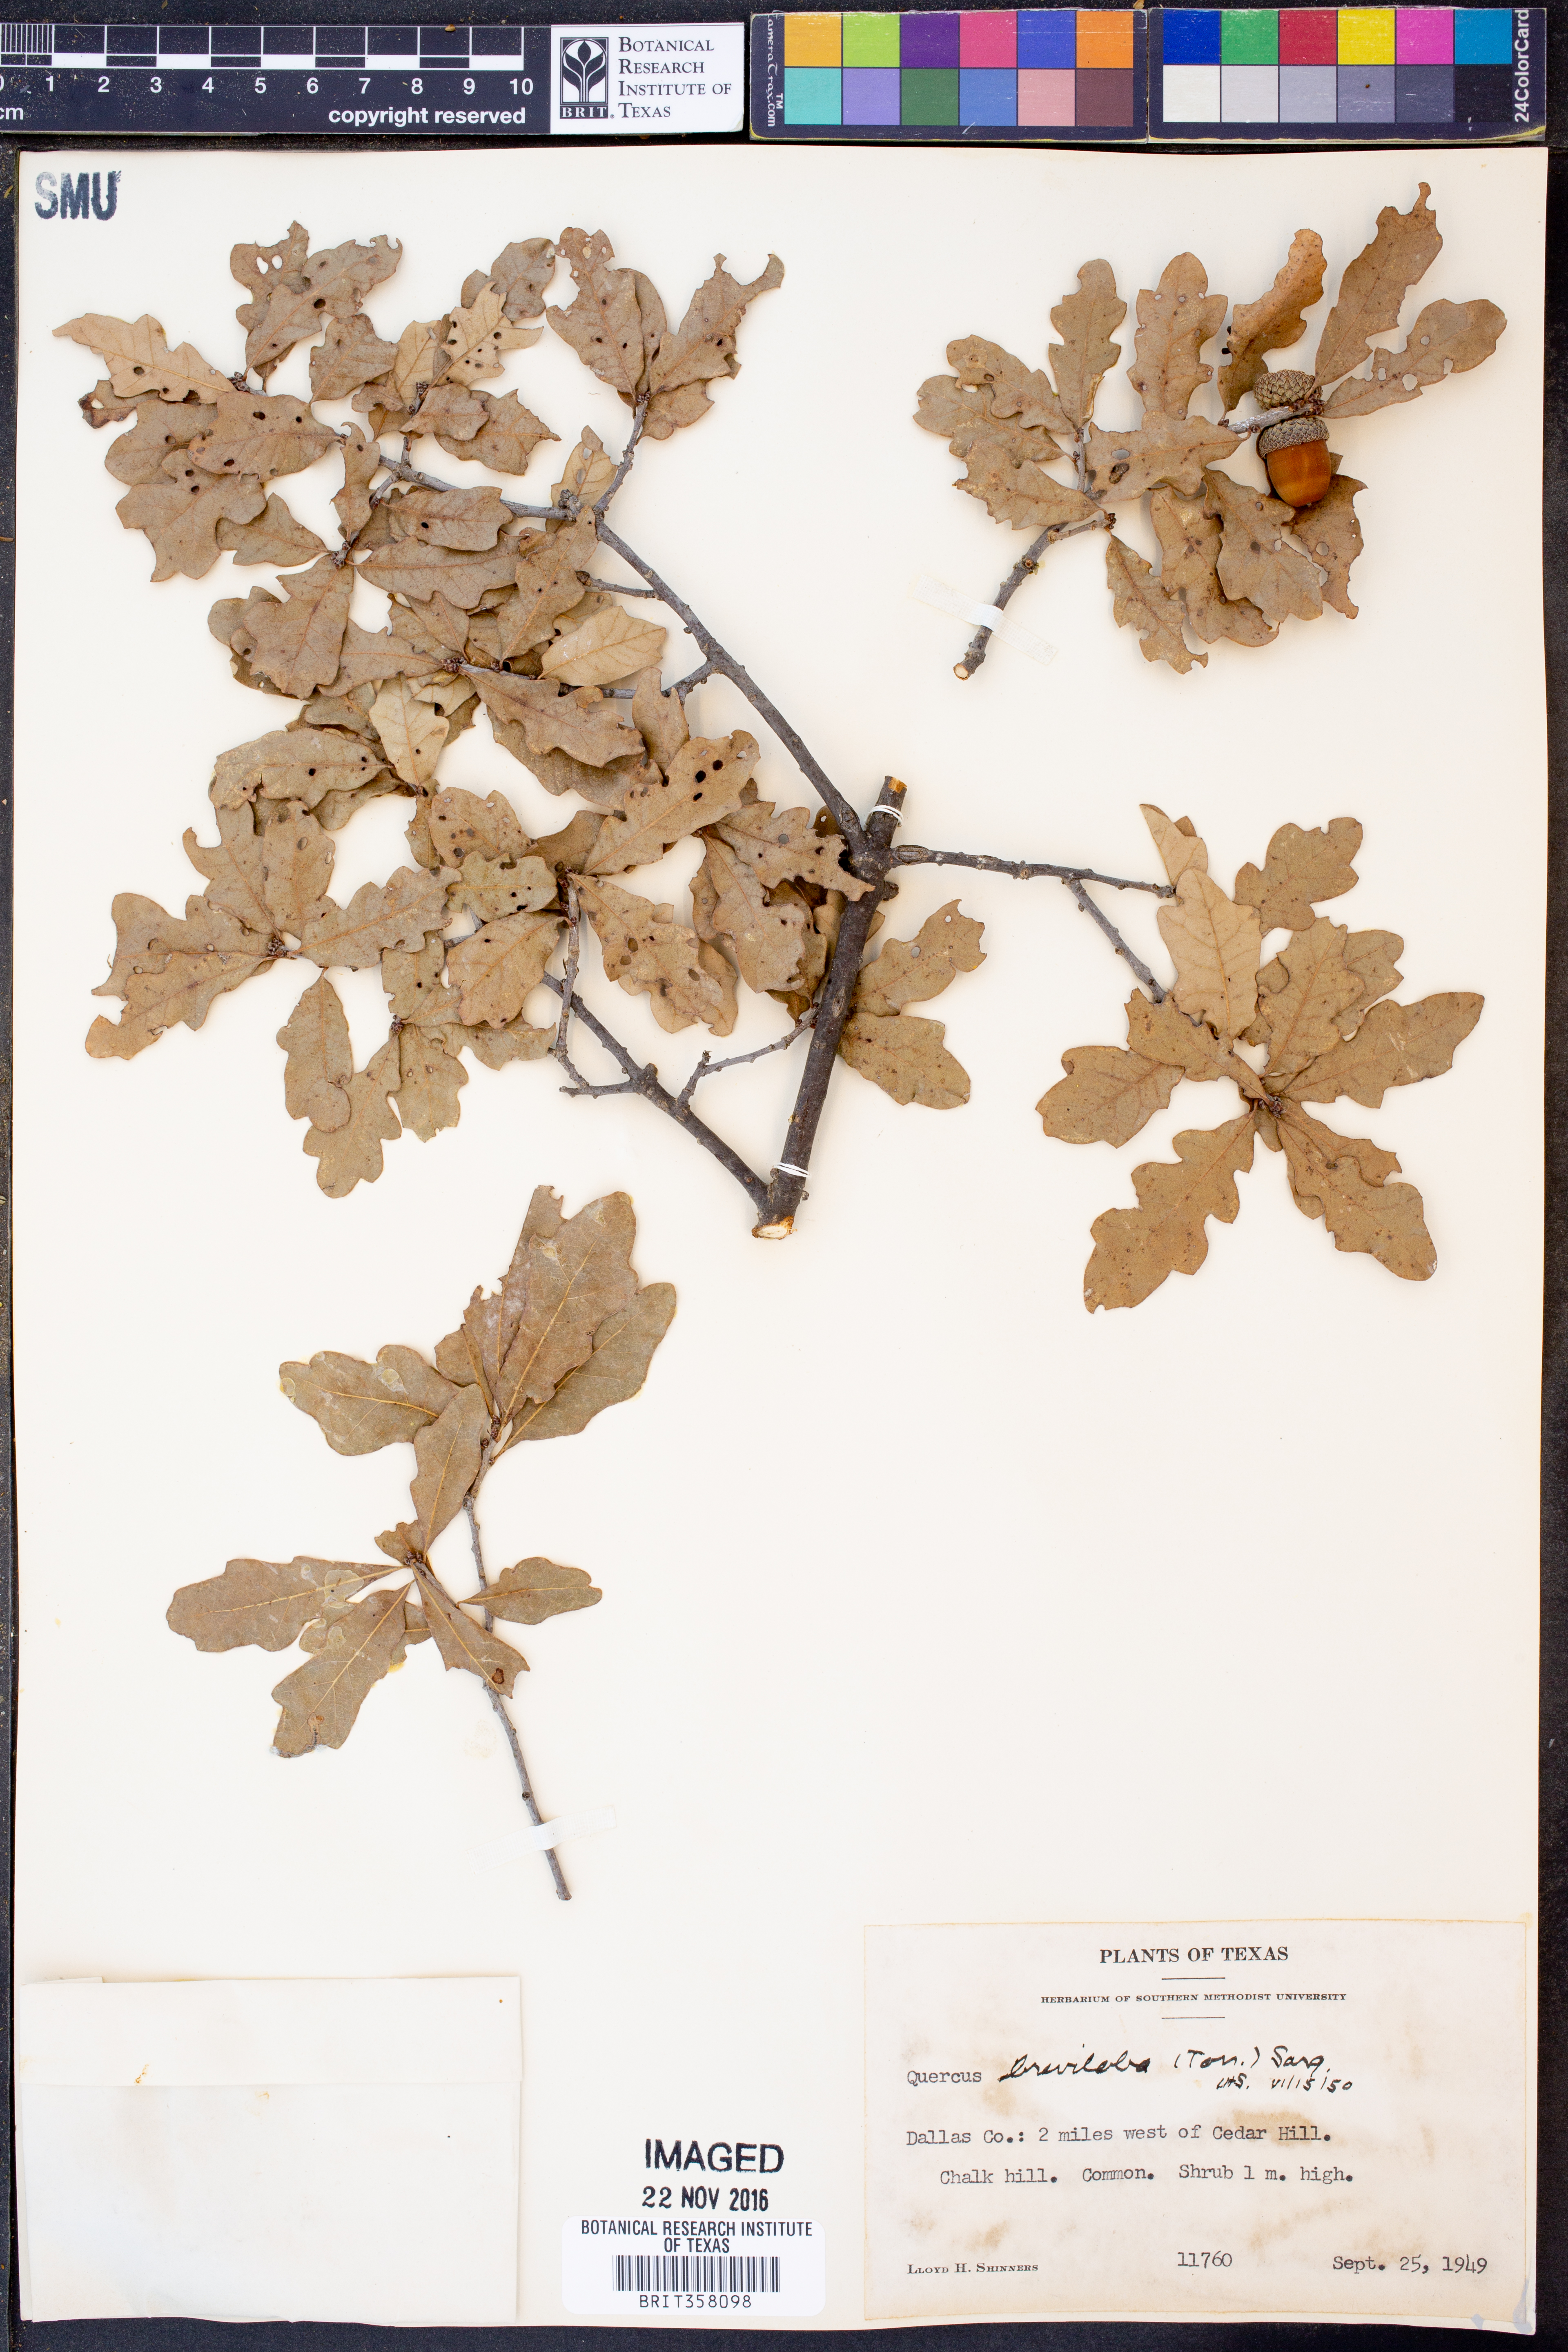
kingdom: Plantae
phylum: Tracheophyta
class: Magnoliopsida
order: Fagales
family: Fagaceae
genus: Quercus
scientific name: Quercus sinuata
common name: Durand oak
